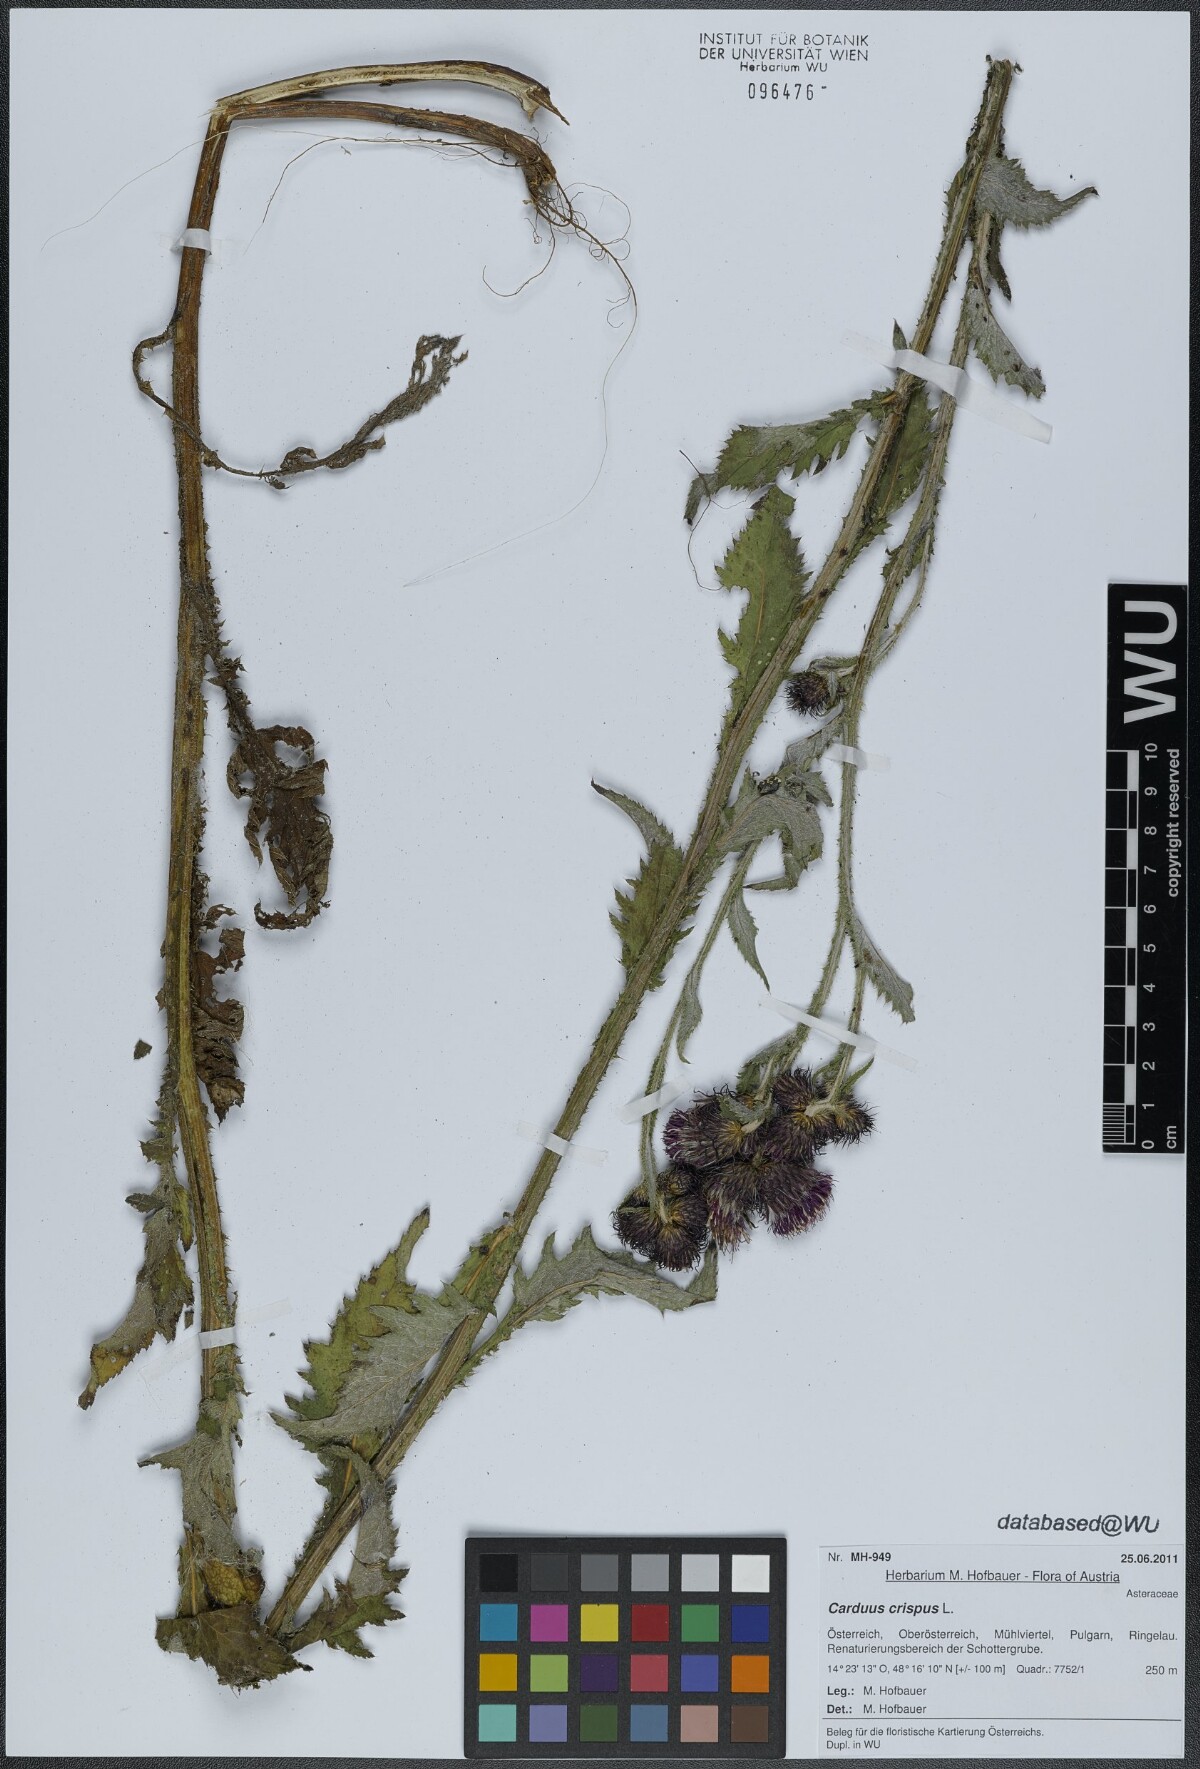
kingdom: Plantae
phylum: Tracheophyta
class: Magnoliopsida
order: Asterales
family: Asteraceae
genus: Carduus
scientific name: Carduus crispus
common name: Welted thistle
